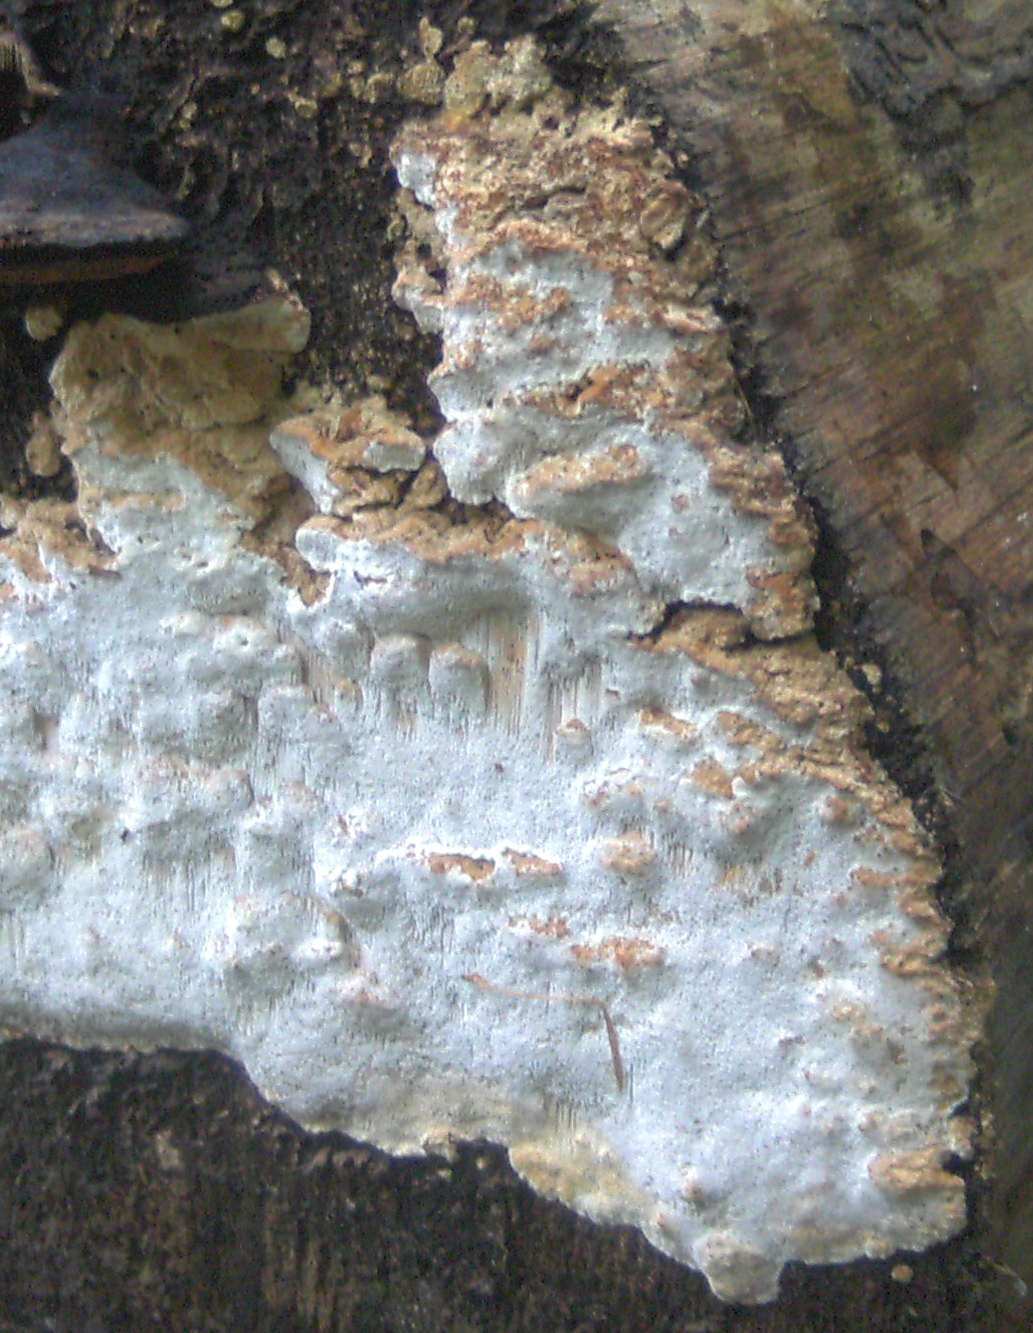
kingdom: Fungi
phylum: Basidiomycota
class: Agaricomycetes
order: Polyporales
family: Fomitopsidaceae
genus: Neoantrodia
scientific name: Neoantrodia serialis
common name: række-sejporesvamp
